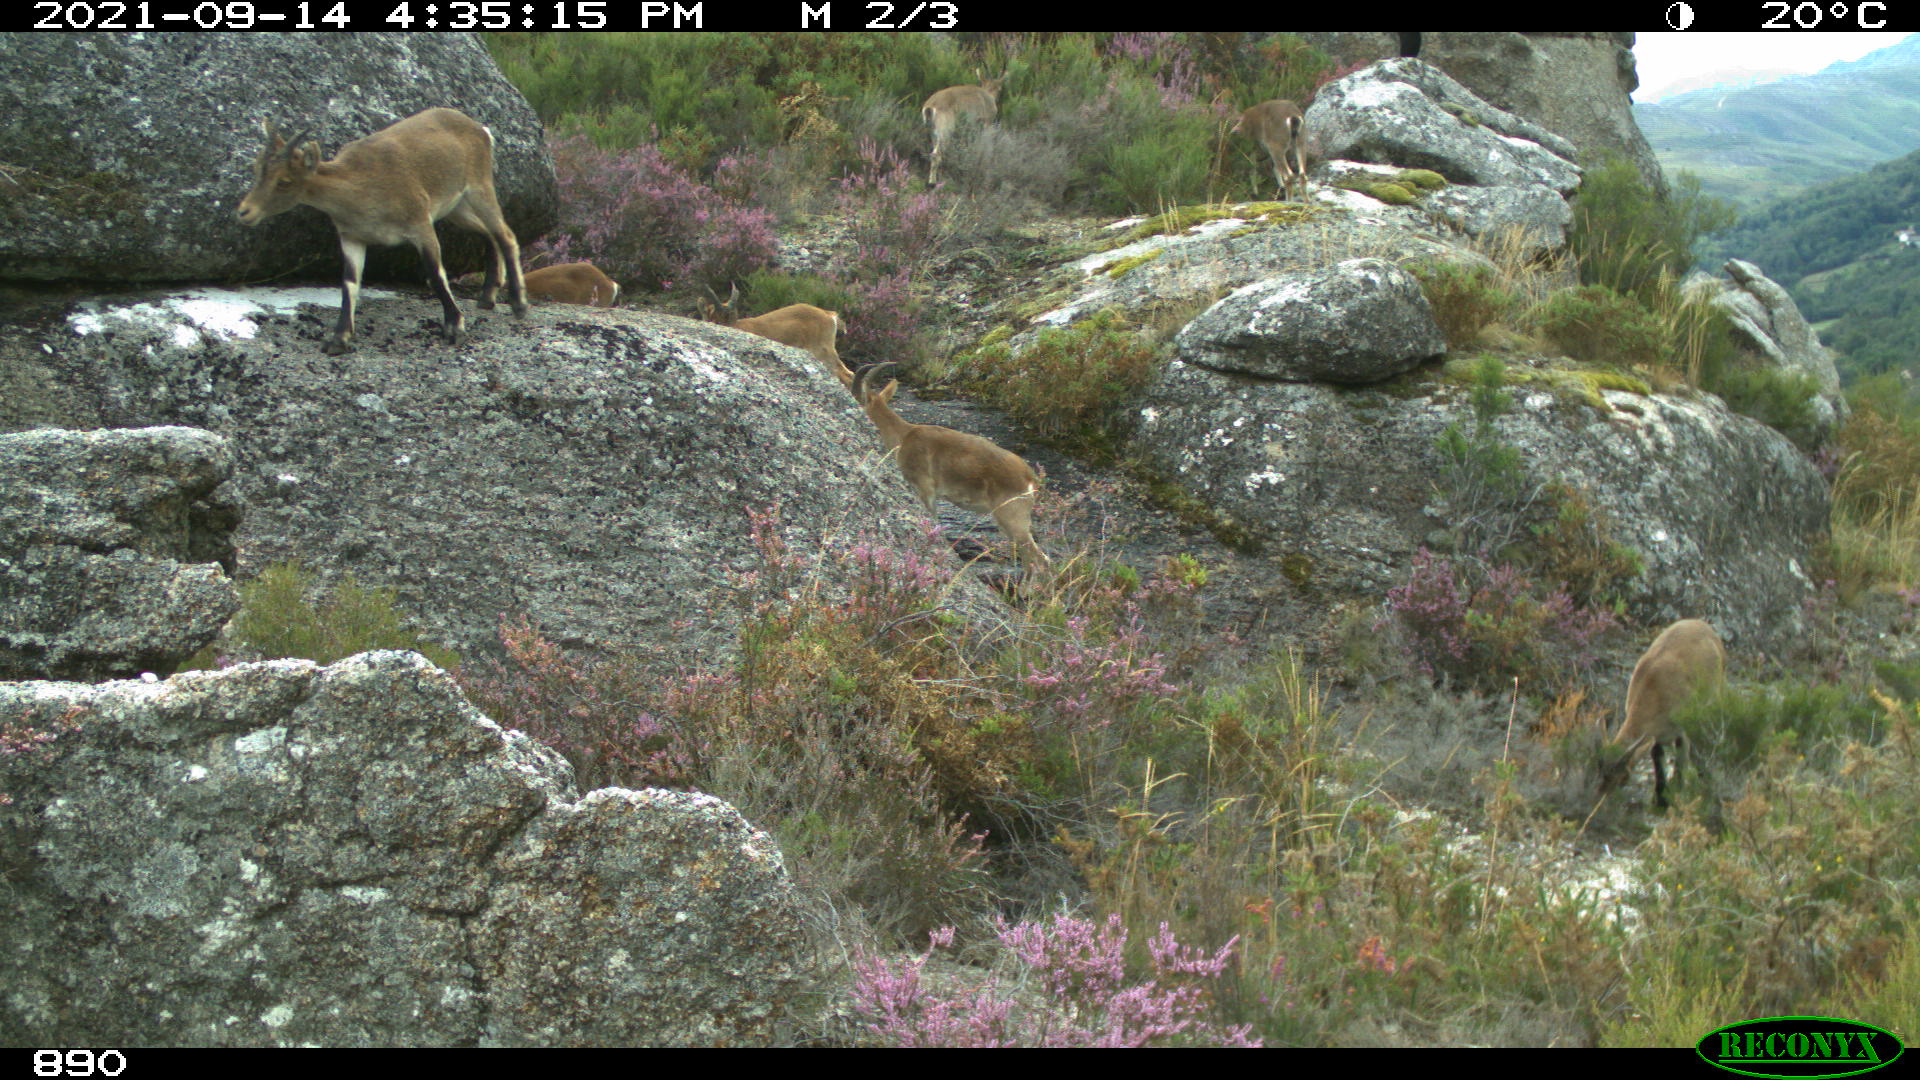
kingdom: Animalia
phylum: Chordata
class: Mammalia
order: Artiodactyla
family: Bovidae
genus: Capra
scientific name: Capra pyrenaica
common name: Spanish ibex
